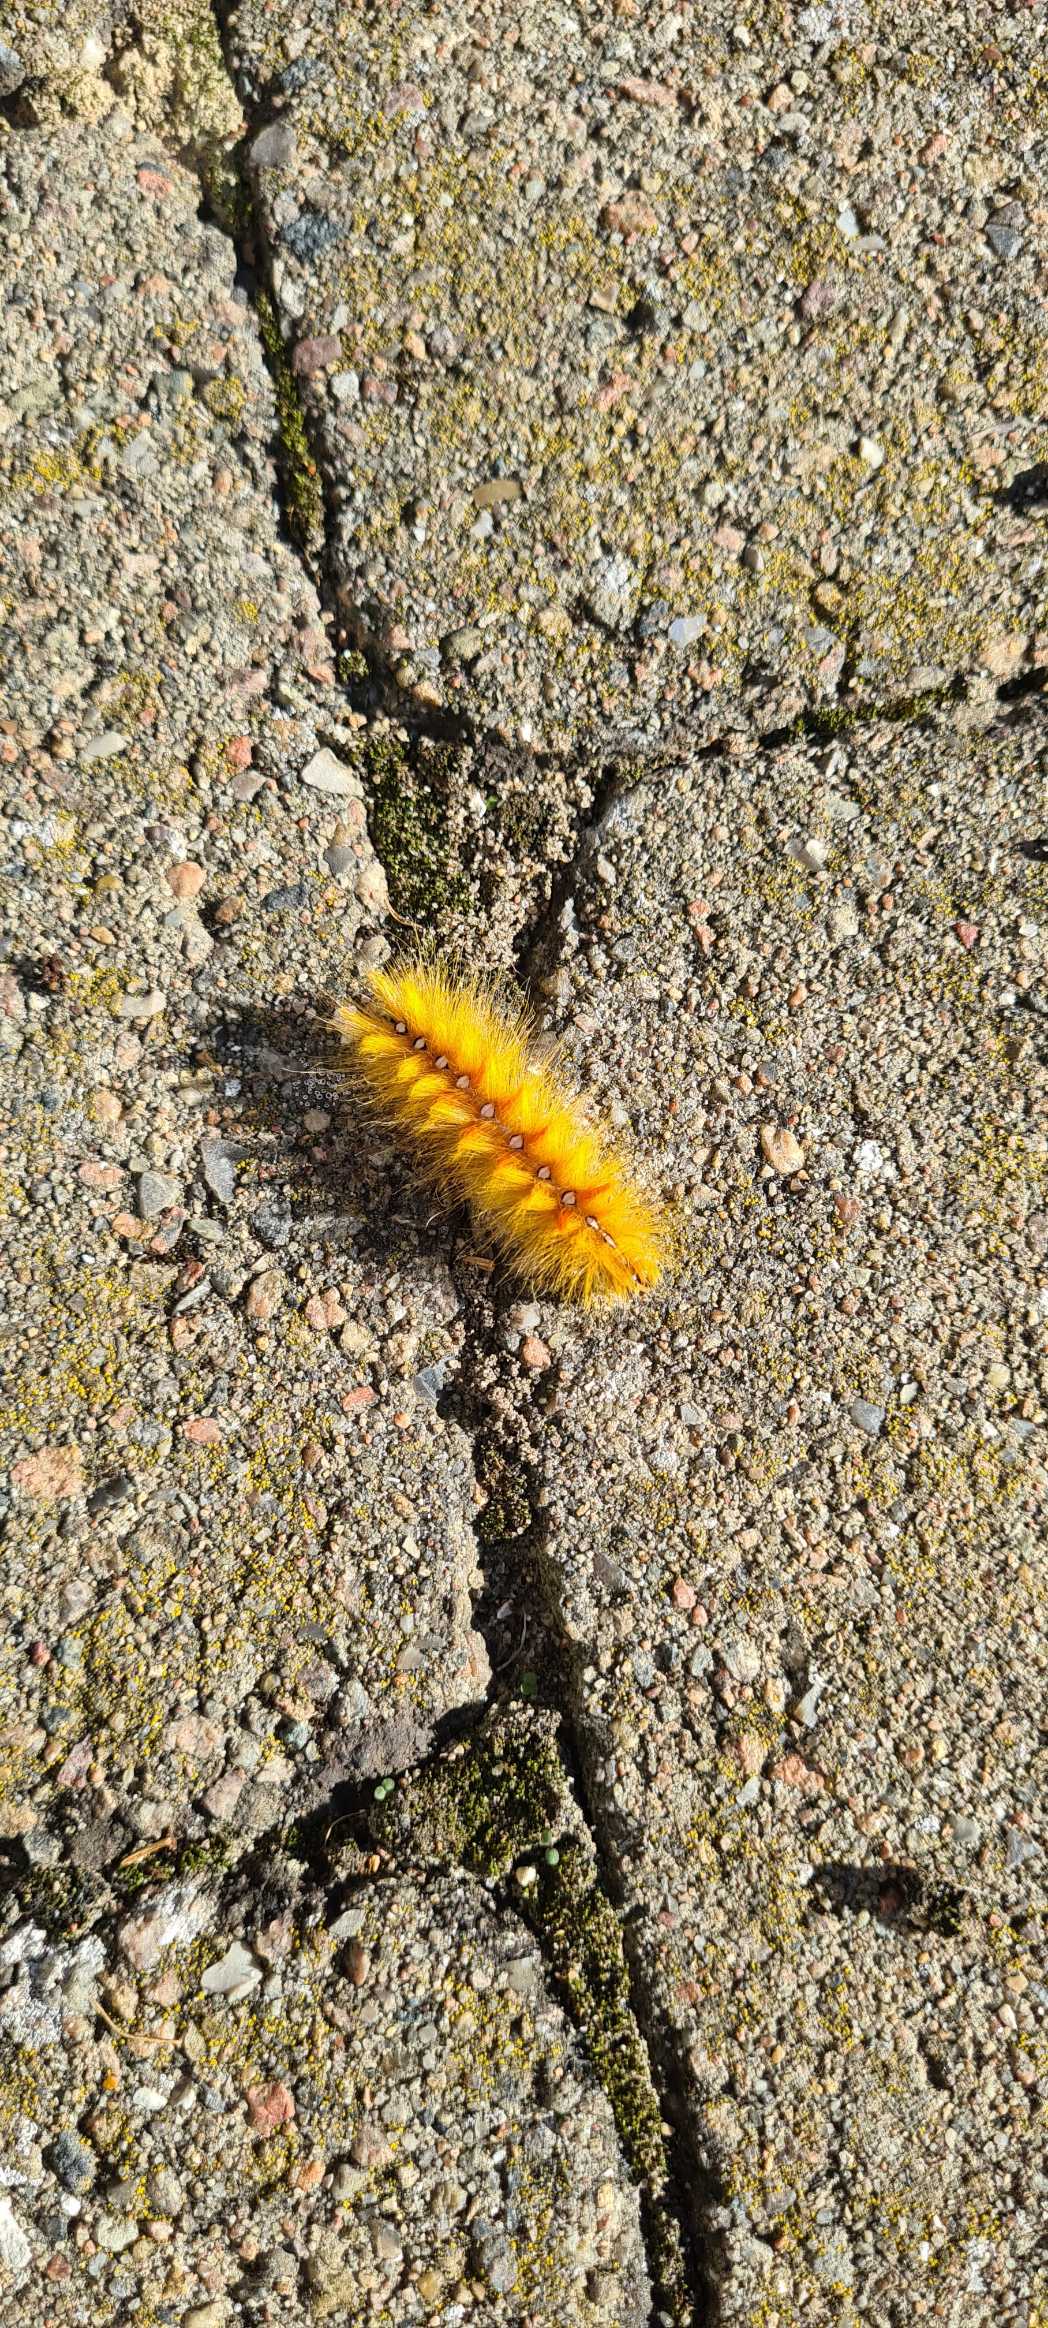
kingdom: Animalia
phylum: Arthropoda
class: Insecta
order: Lepidoptera
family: Noctuidae
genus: Acronicta
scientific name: Acronicta aceris
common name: Ahornugle
